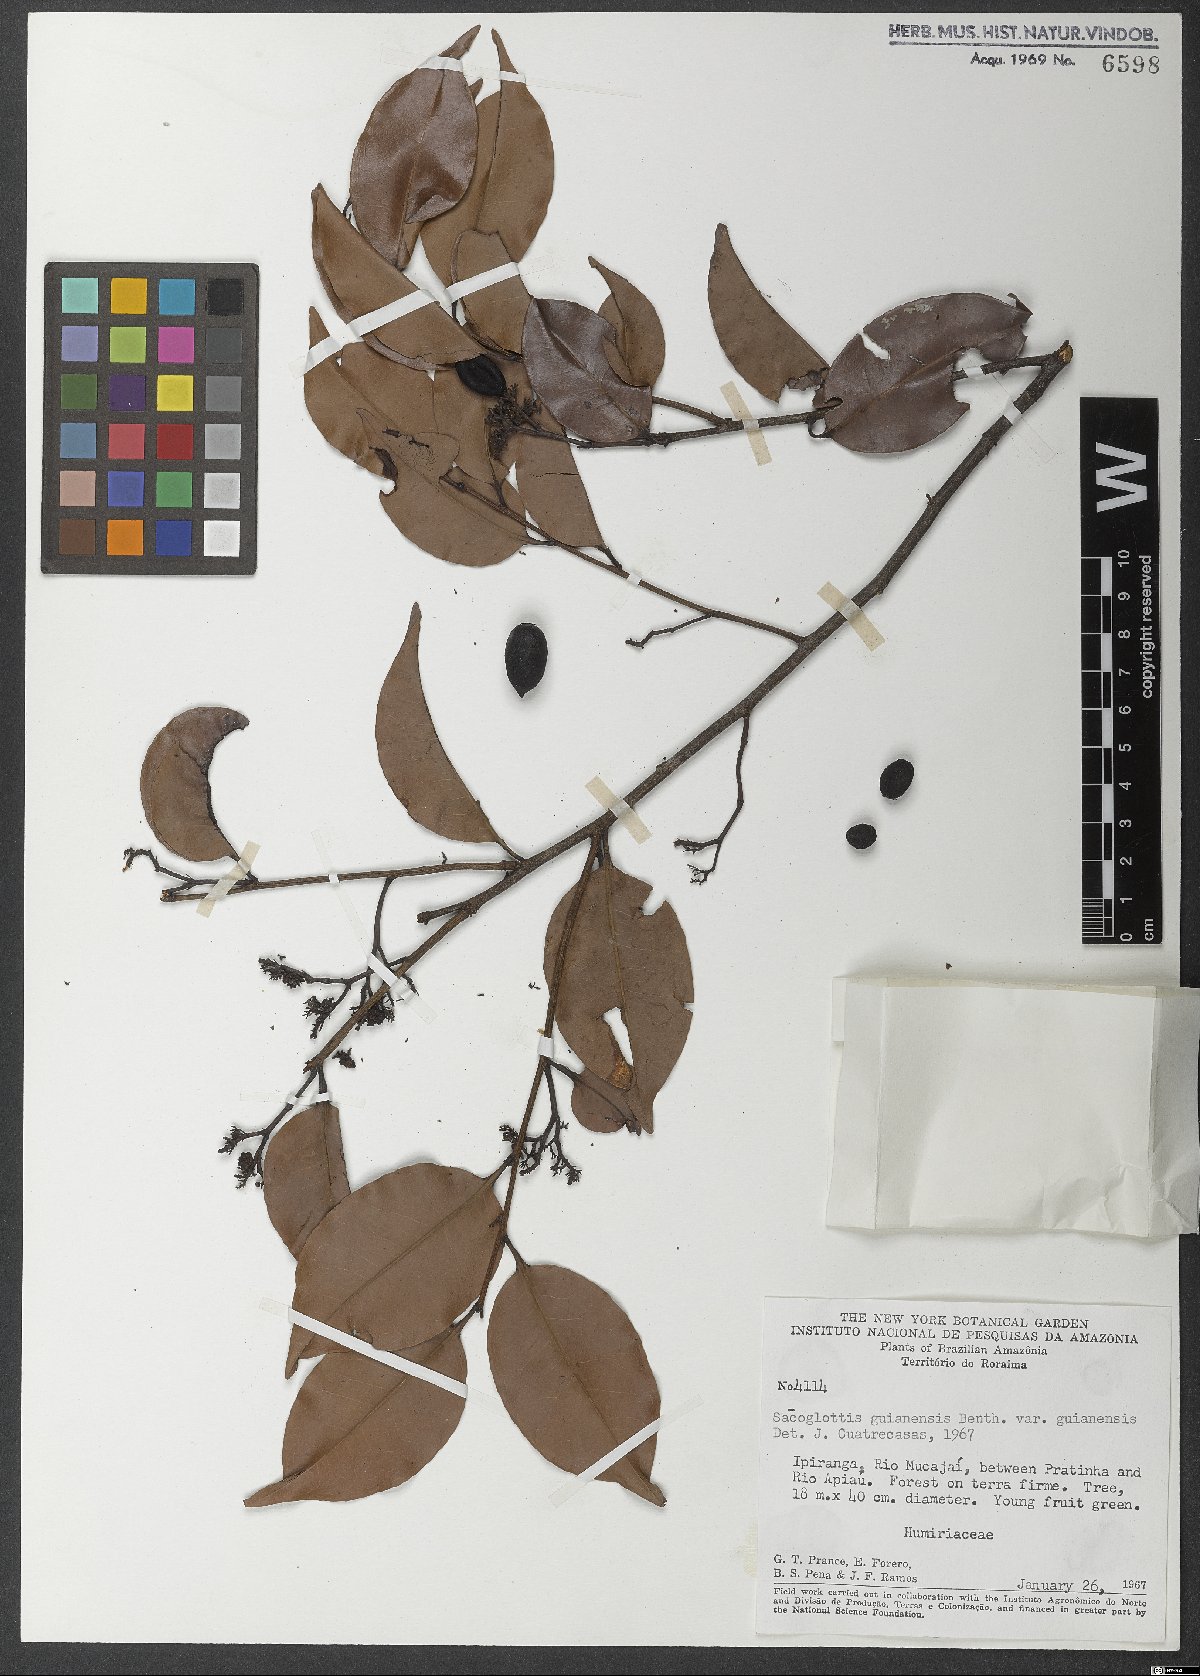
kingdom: Plantae
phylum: Tracheophyta
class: Magnoliopsida
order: Malpighiales
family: Humiriaceae
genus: Sacoglottis
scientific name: Sacoglottis guianensis
